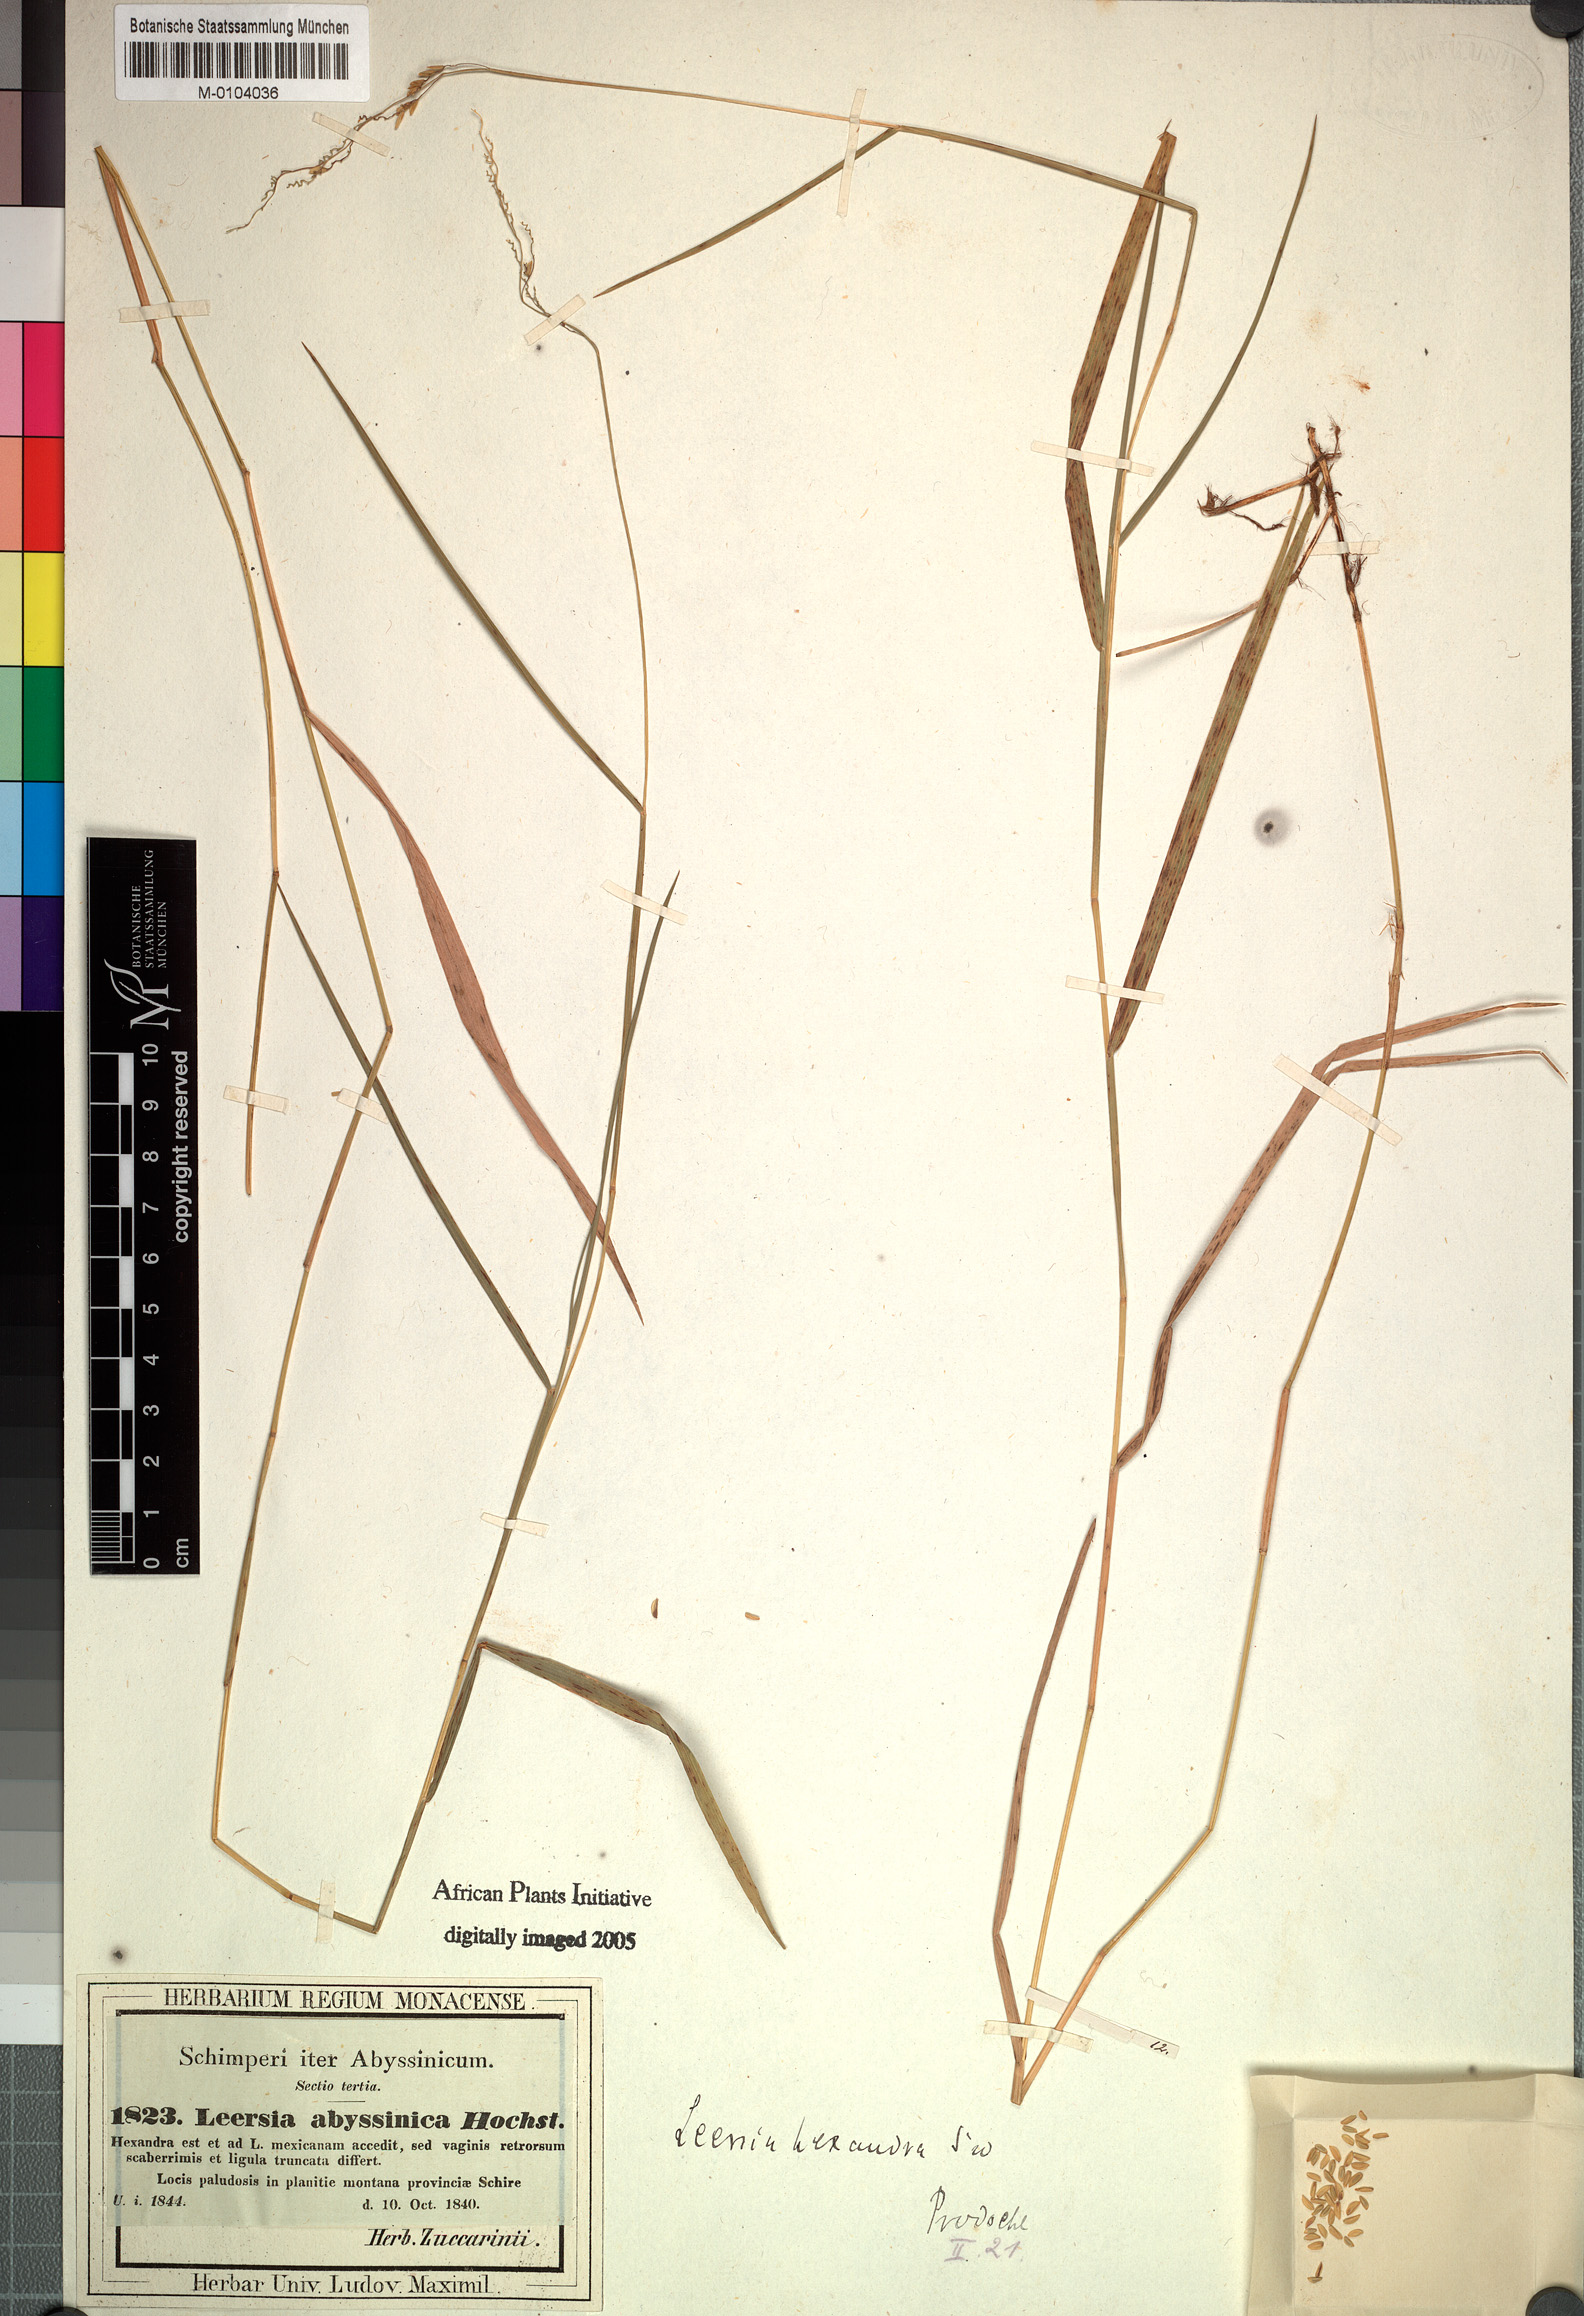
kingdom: Plantae
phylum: Tracheophyta
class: Liliopsida
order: Poales
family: Poaceae
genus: Leersia
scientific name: Leersia hexandra
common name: Southern cut grass
